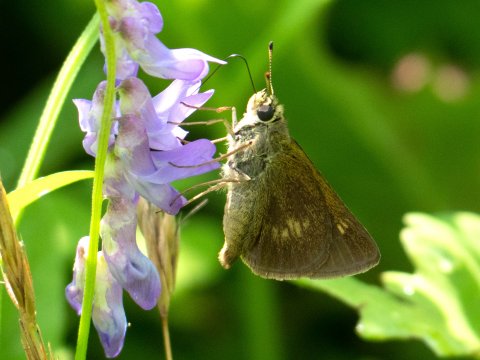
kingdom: Animalia
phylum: Arthropoda
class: Insecta
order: Lepidoptera
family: Hesperiidae
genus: Polites
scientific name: Polites egeremet
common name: Northern Broken-Dash
